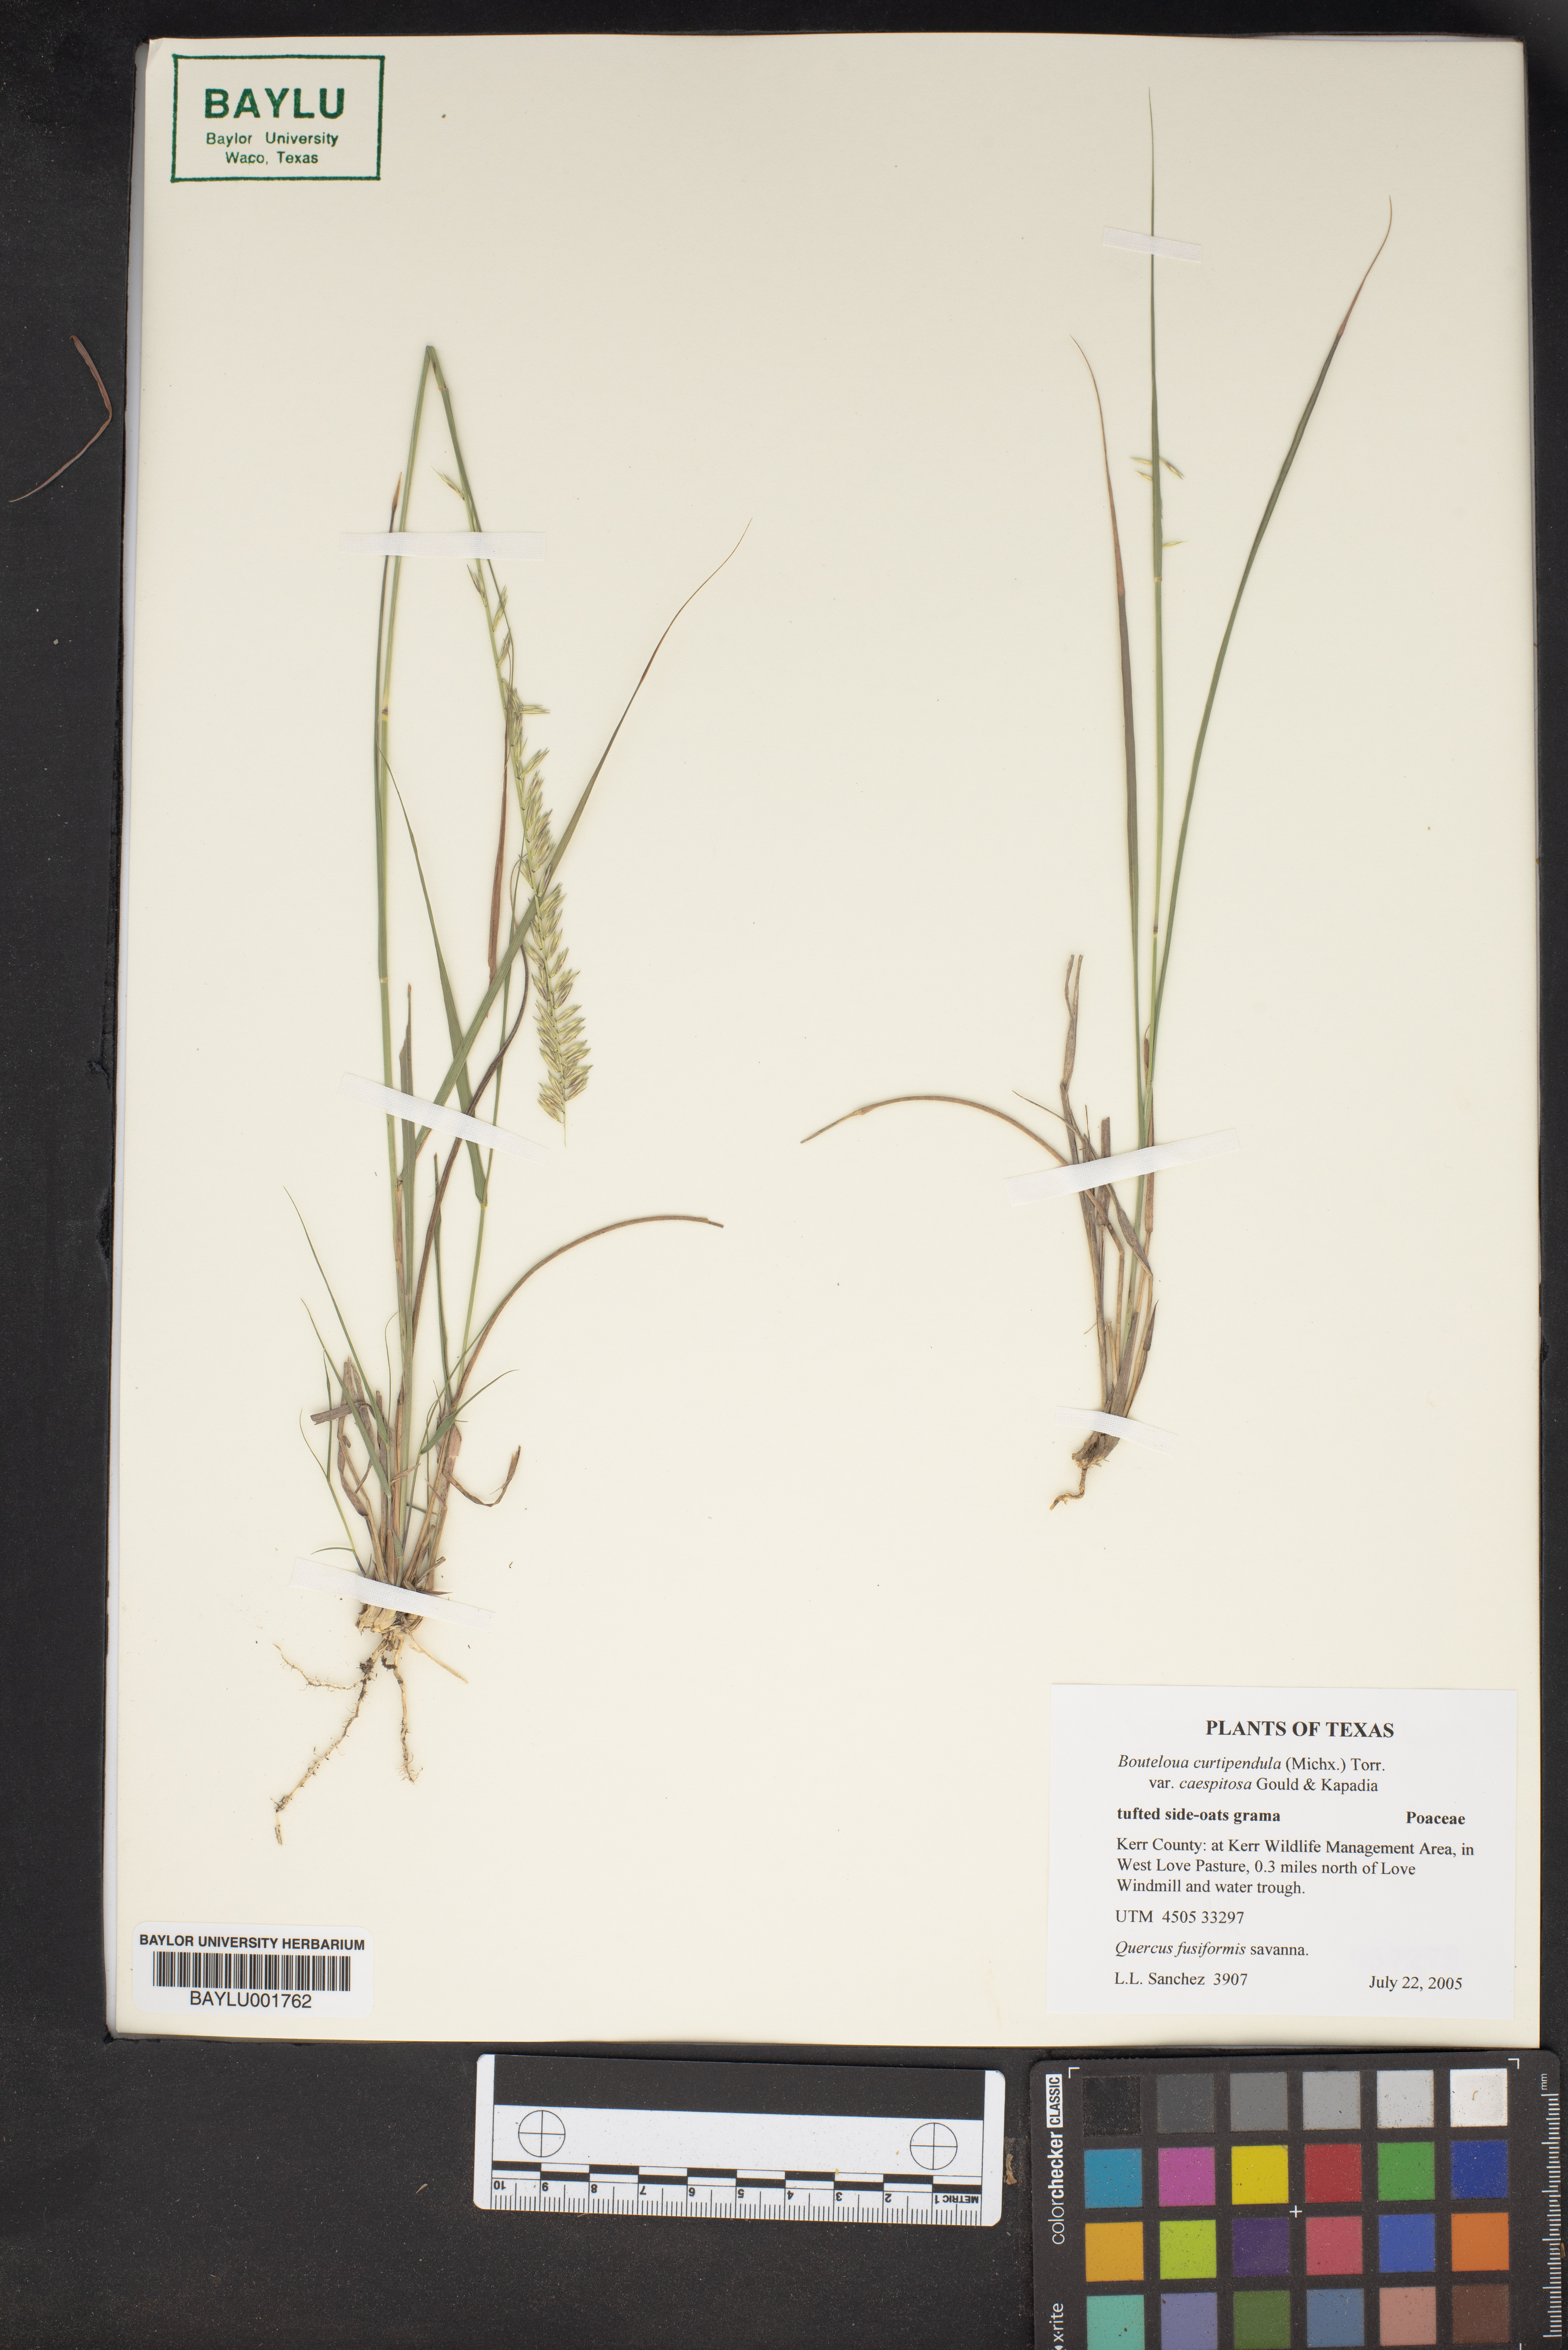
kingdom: Plantae
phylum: Tracheophyta
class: Magnoliopsida
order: Fagales
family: Fagaceae
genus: Quercus
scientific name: Quercus fusiformis
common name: Texas live oak
